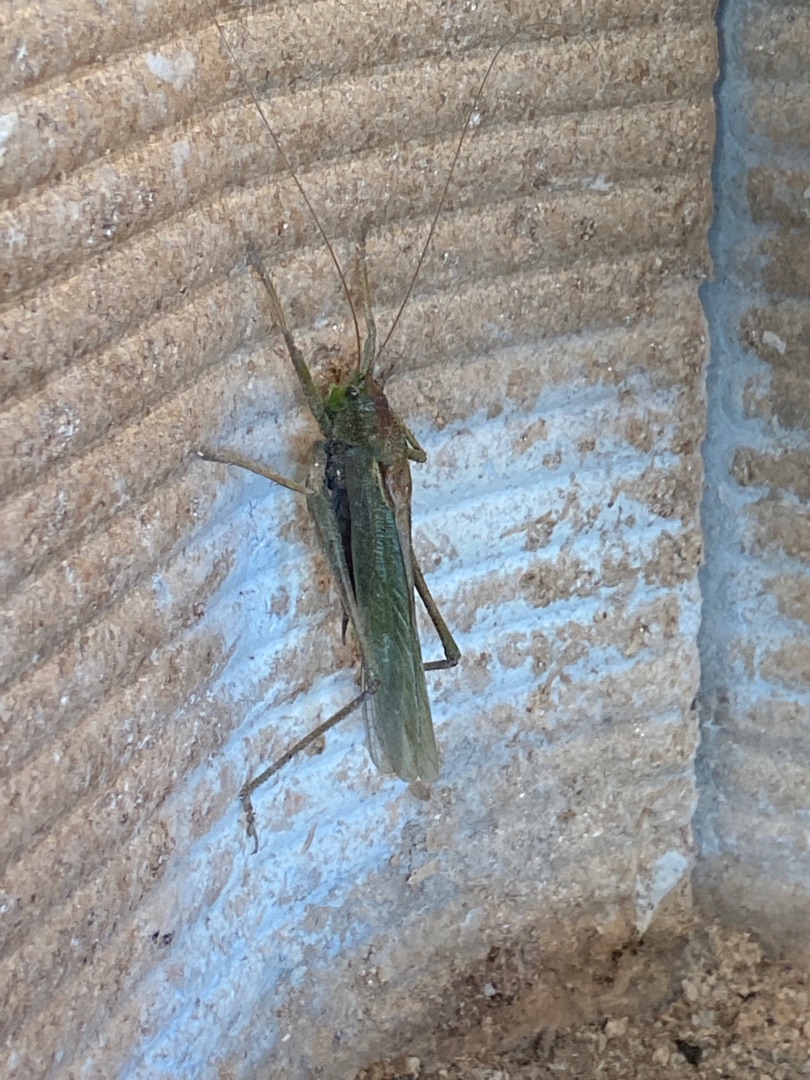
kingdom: Animalia
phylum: Arthropoda
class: Insecta
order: Orthoptera
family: Tettigoniidae
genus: Tettigonia
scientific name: Tettigonia viridissima
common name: Stor grøn løvgræshoppe
